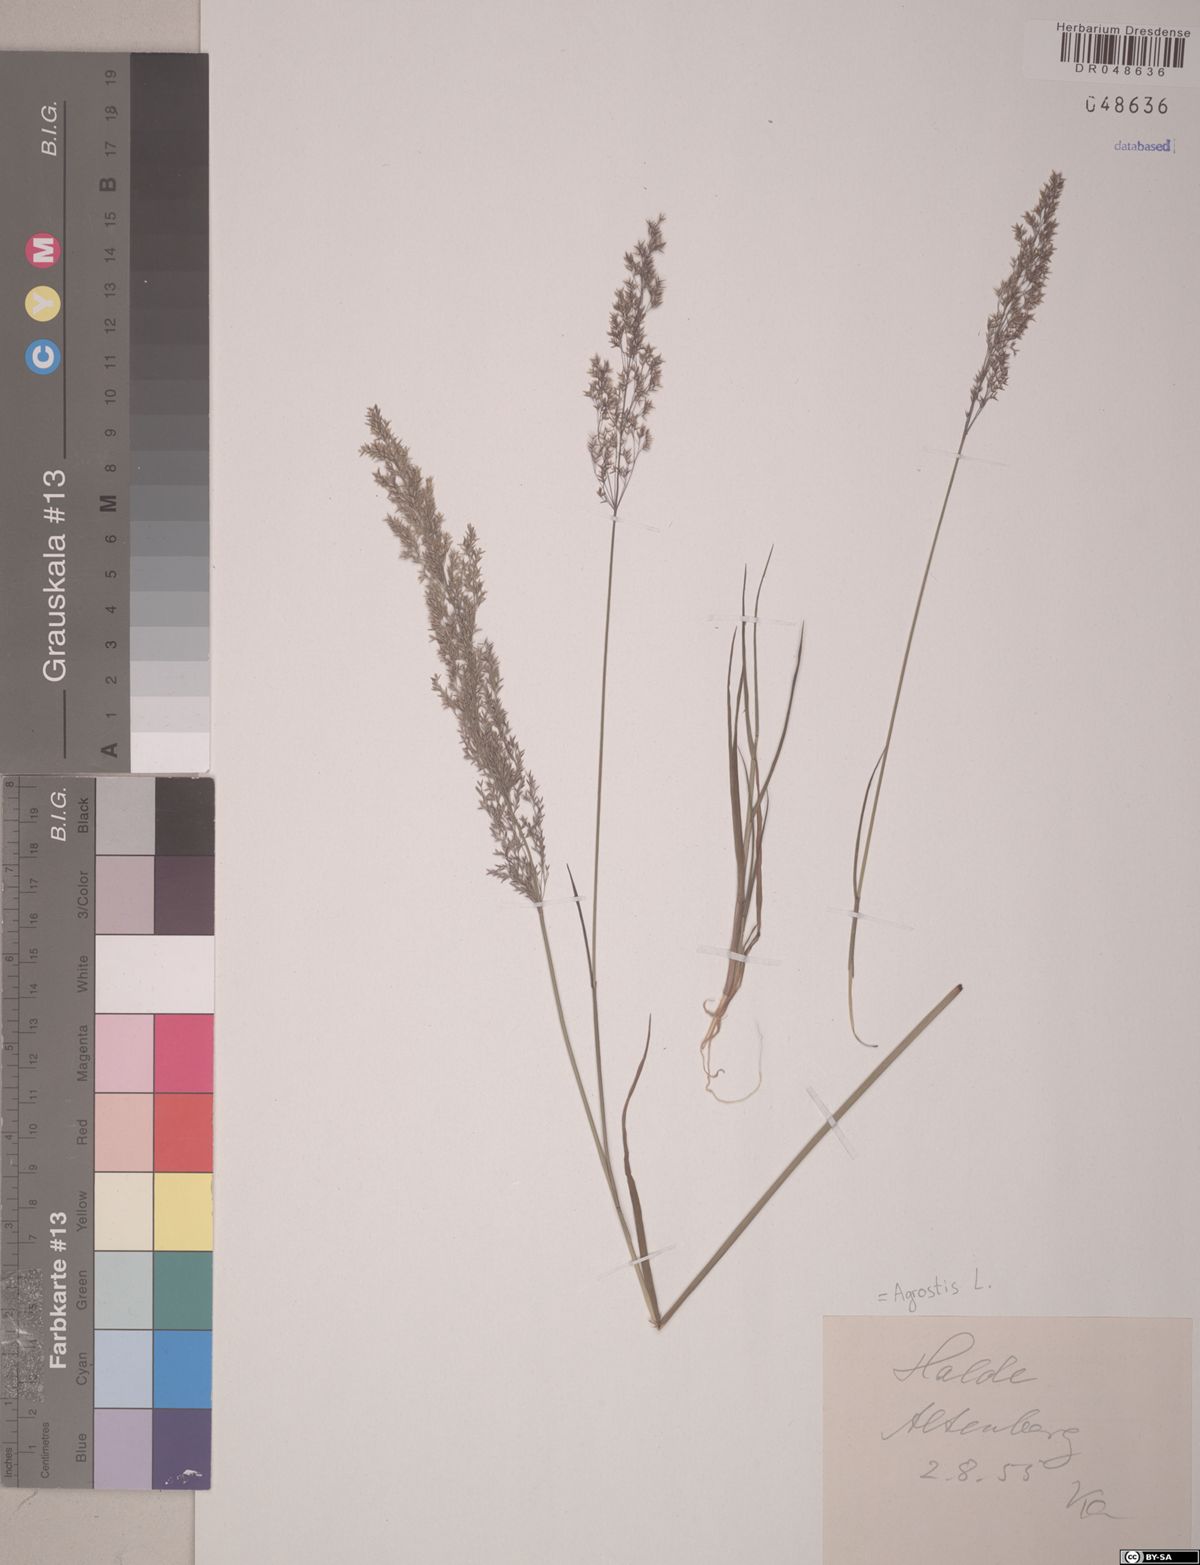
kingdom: Plantae
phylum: Tracheophyta
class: Liliopsida
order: Poales
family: Poaceae
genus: Agrostis
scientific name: Agrostis capillaris
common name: Colonial bentgrass
